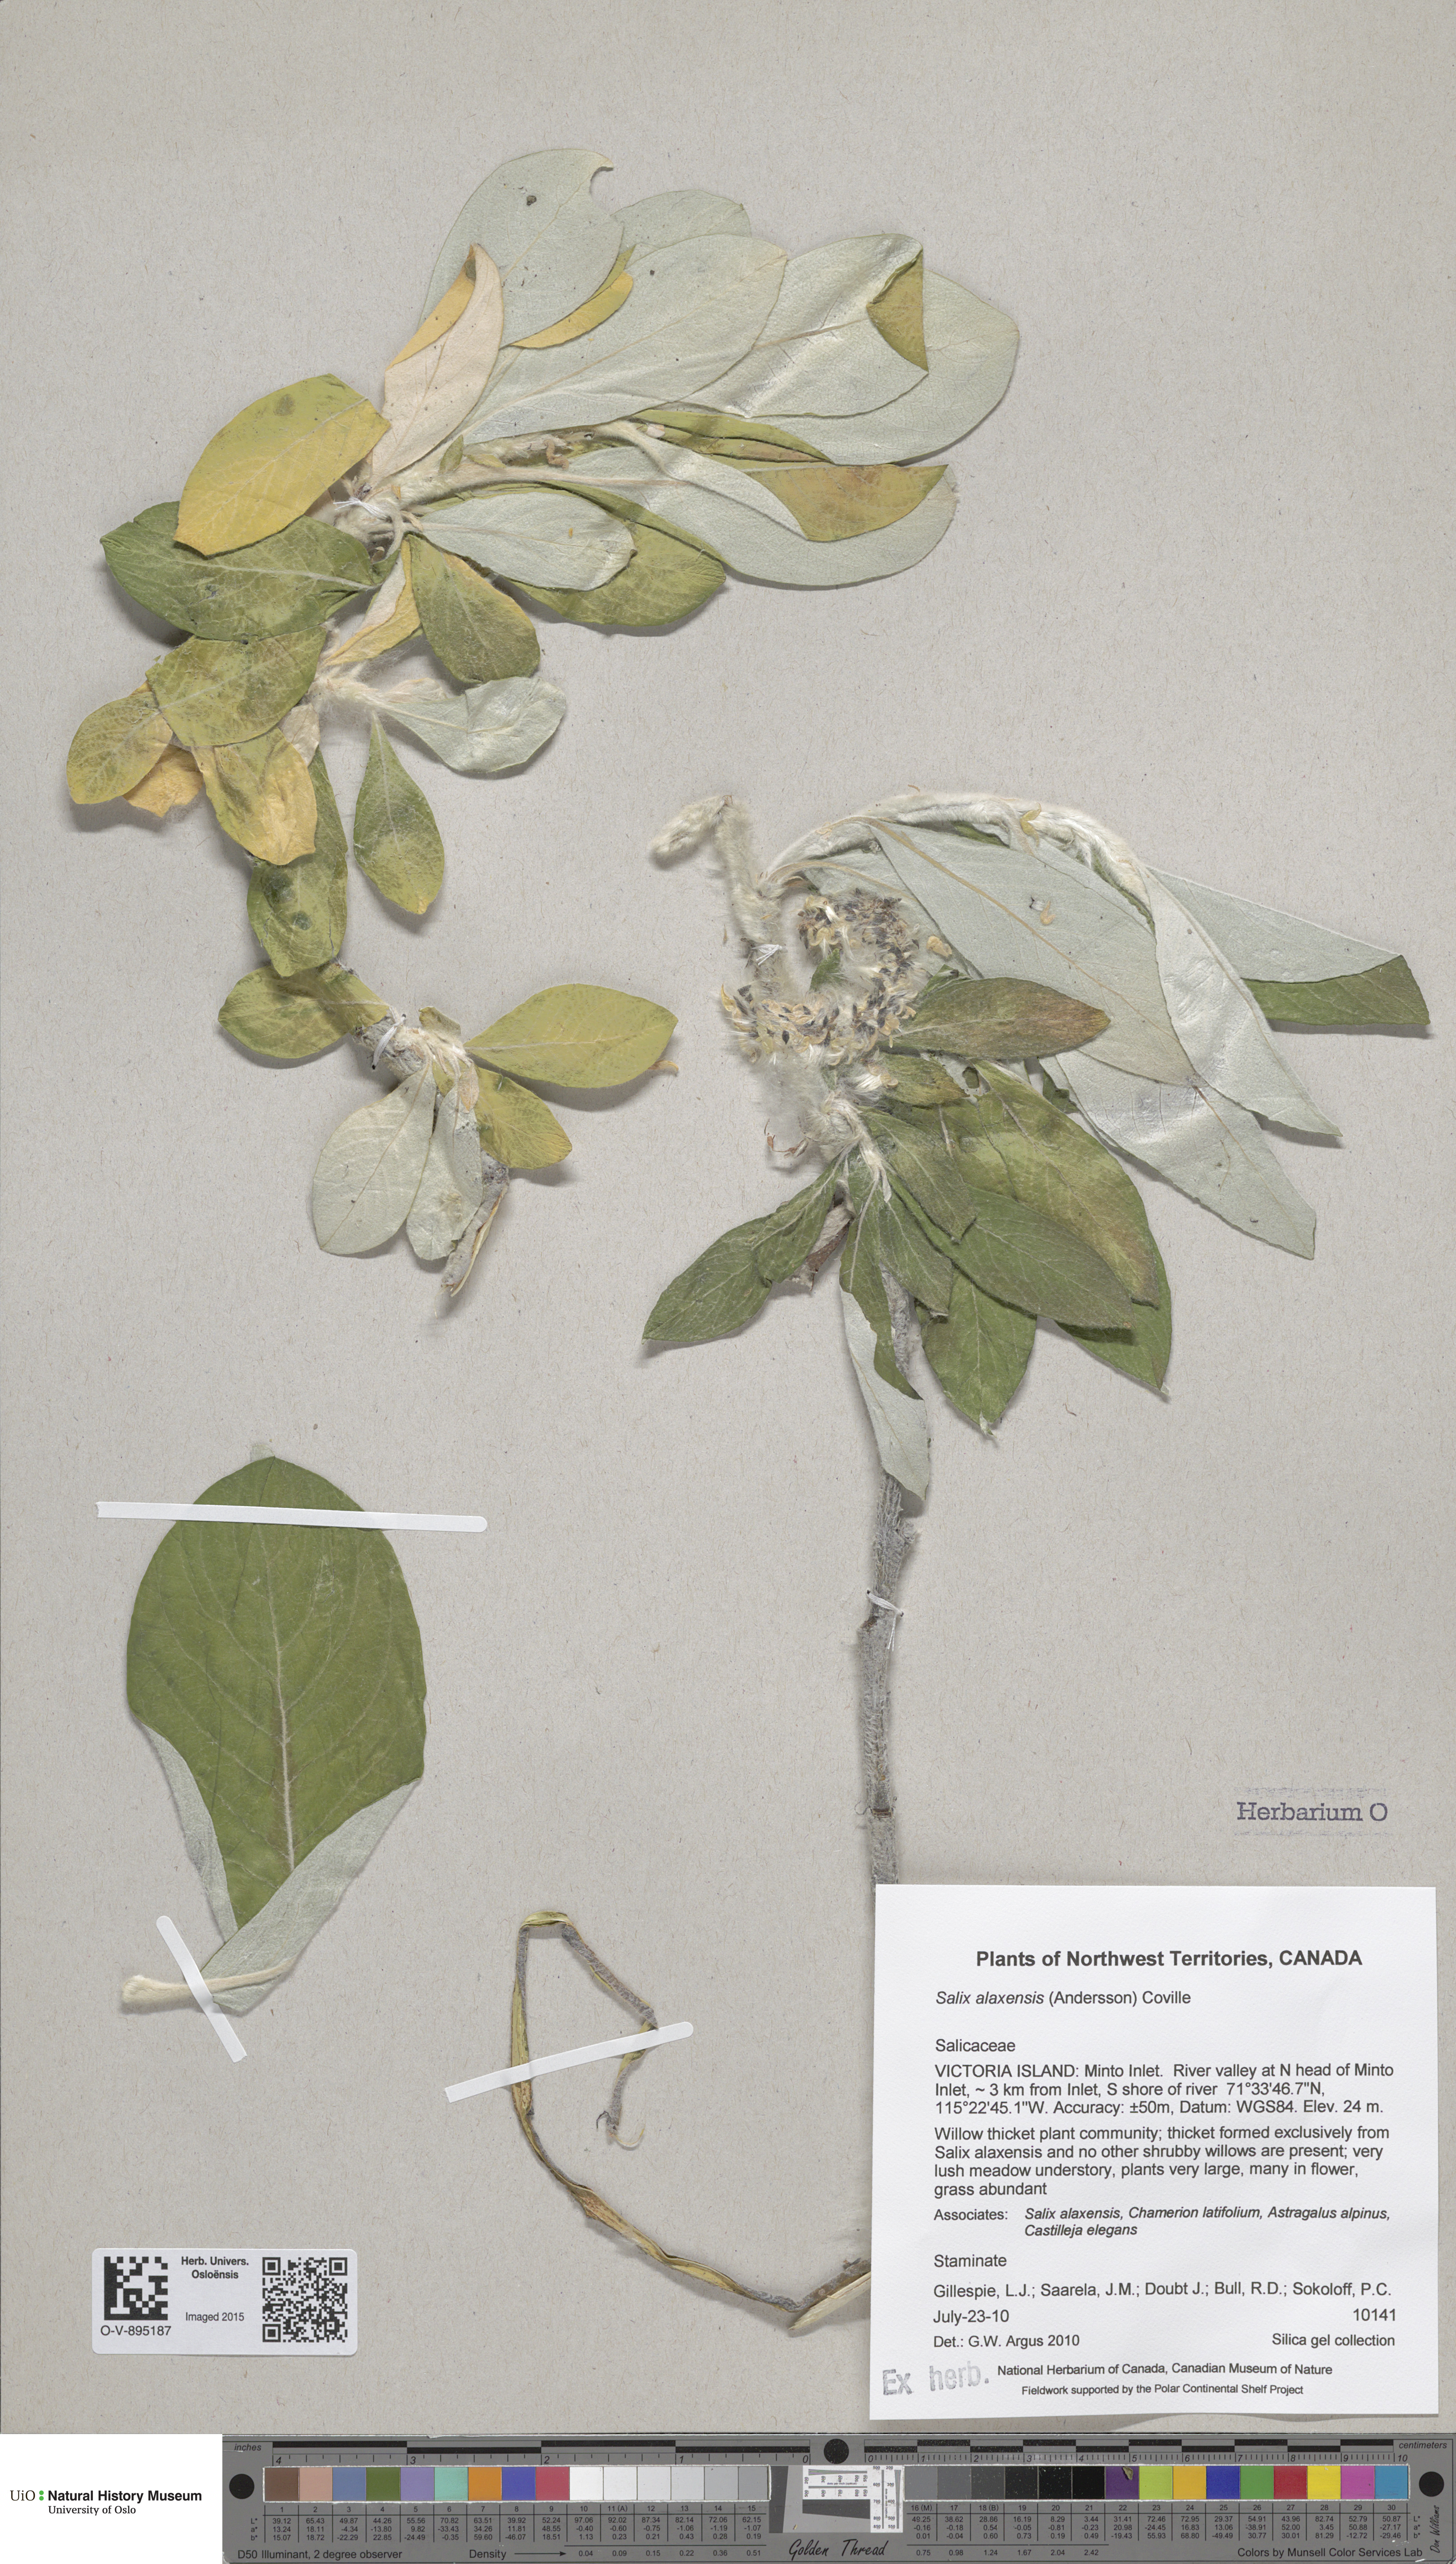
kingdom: Plantae
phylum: Tracheophyta
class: Magnoliopsida
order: Malpighiales
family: Salicaceae
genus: Salix
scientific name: Salix alaxensis
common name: Feltleaf willow
